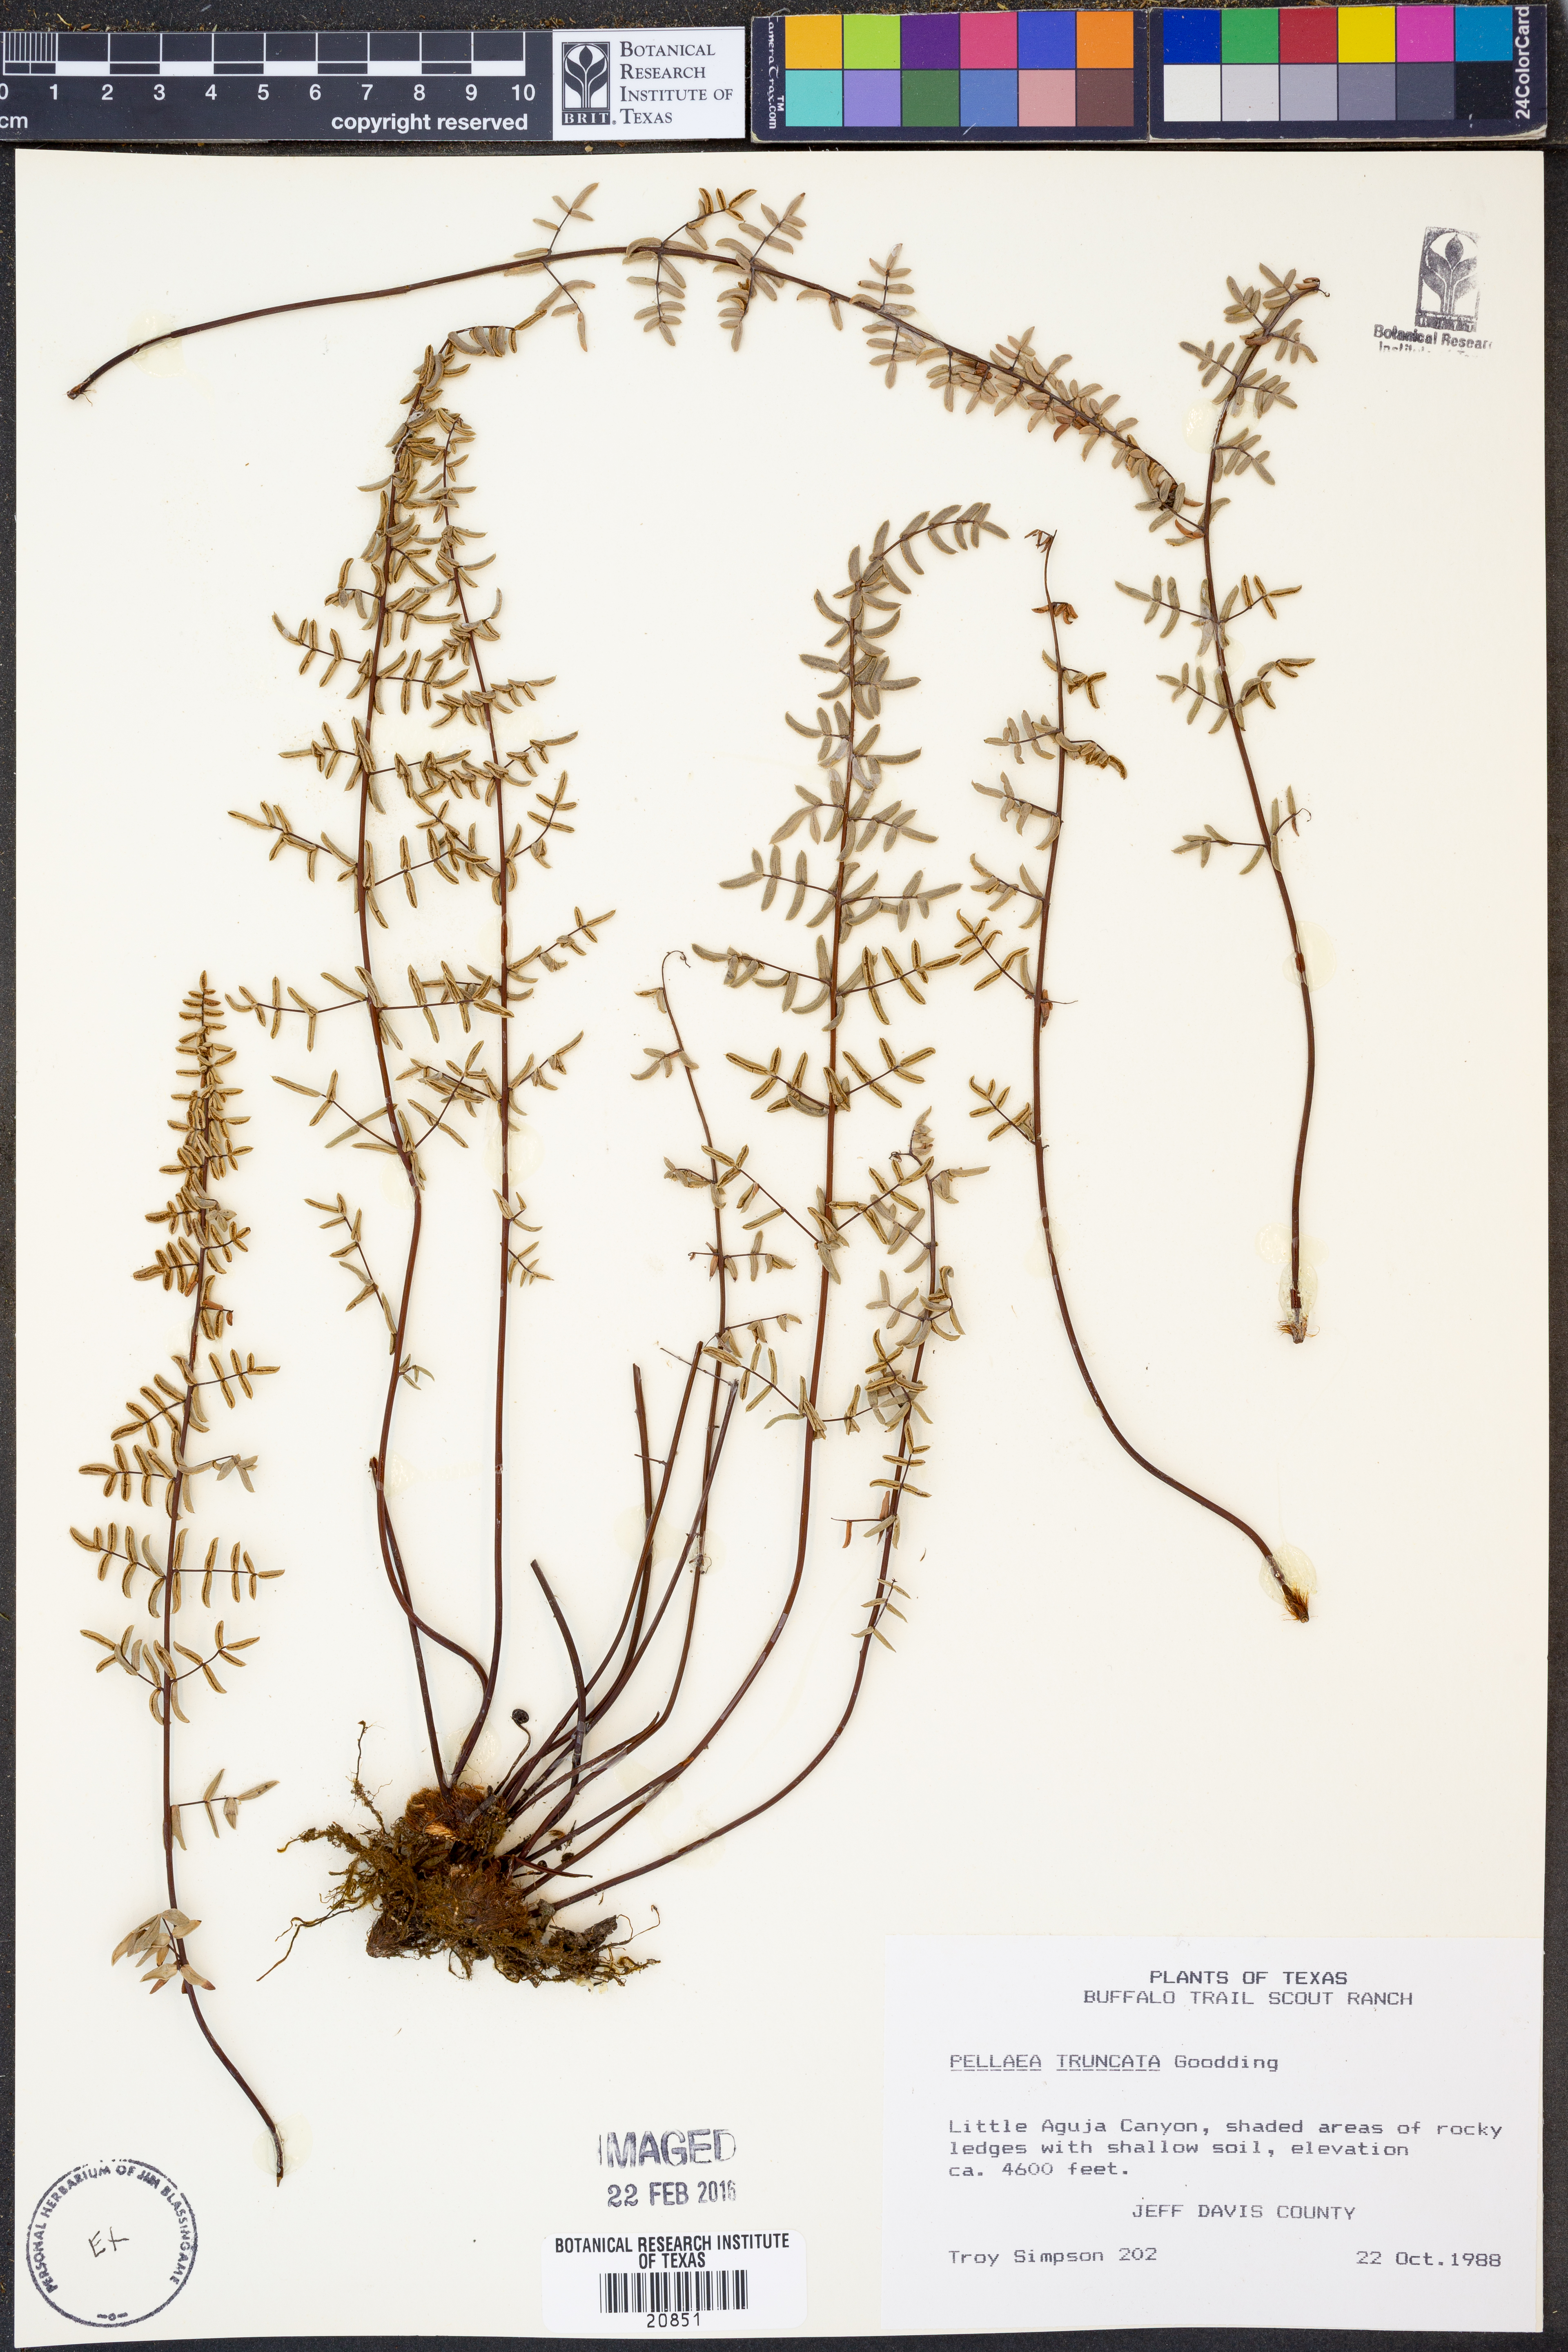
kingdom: Plantae
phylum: Tracheophyta
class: Polypodiopsida
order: Polypodiales
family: Pteridaceae
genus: Pellaea
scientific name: Pellaea truncata
